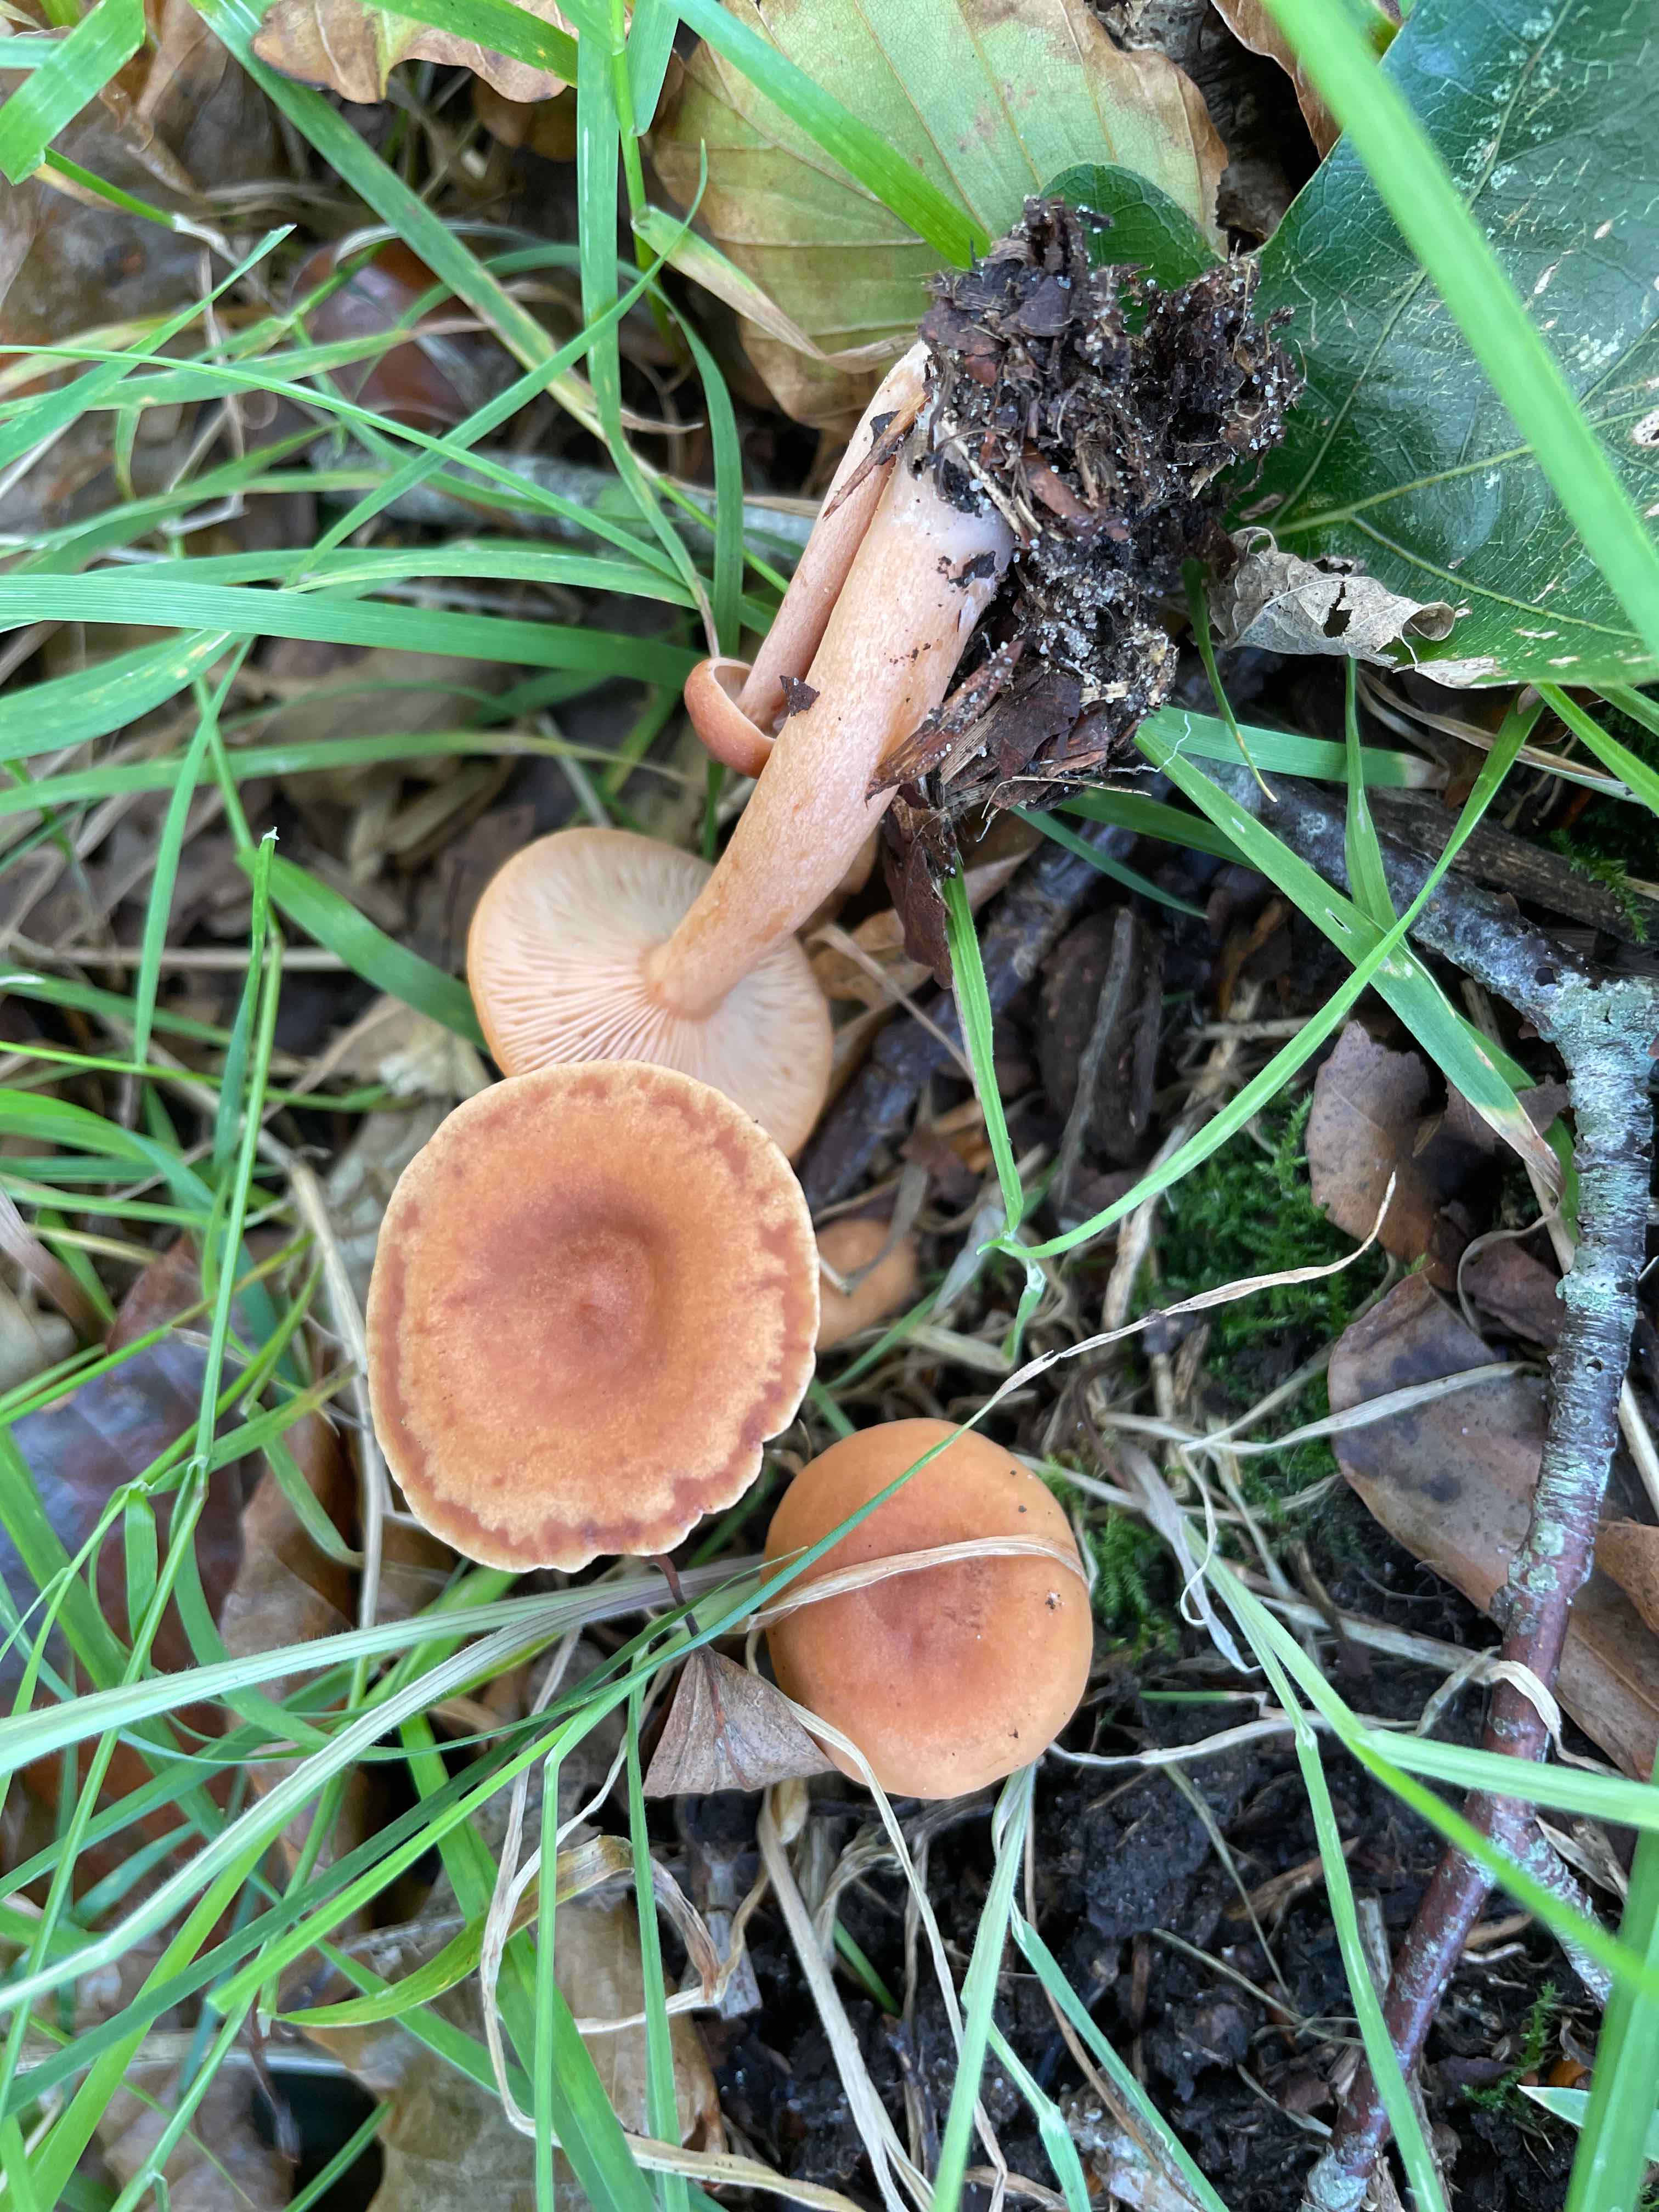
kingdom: Fungi
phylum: Basidiomycota
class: Agaricomycetes
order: Russulales
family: Russulaceae
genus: Lactarius
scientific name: Lactarius
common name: mælkehat
